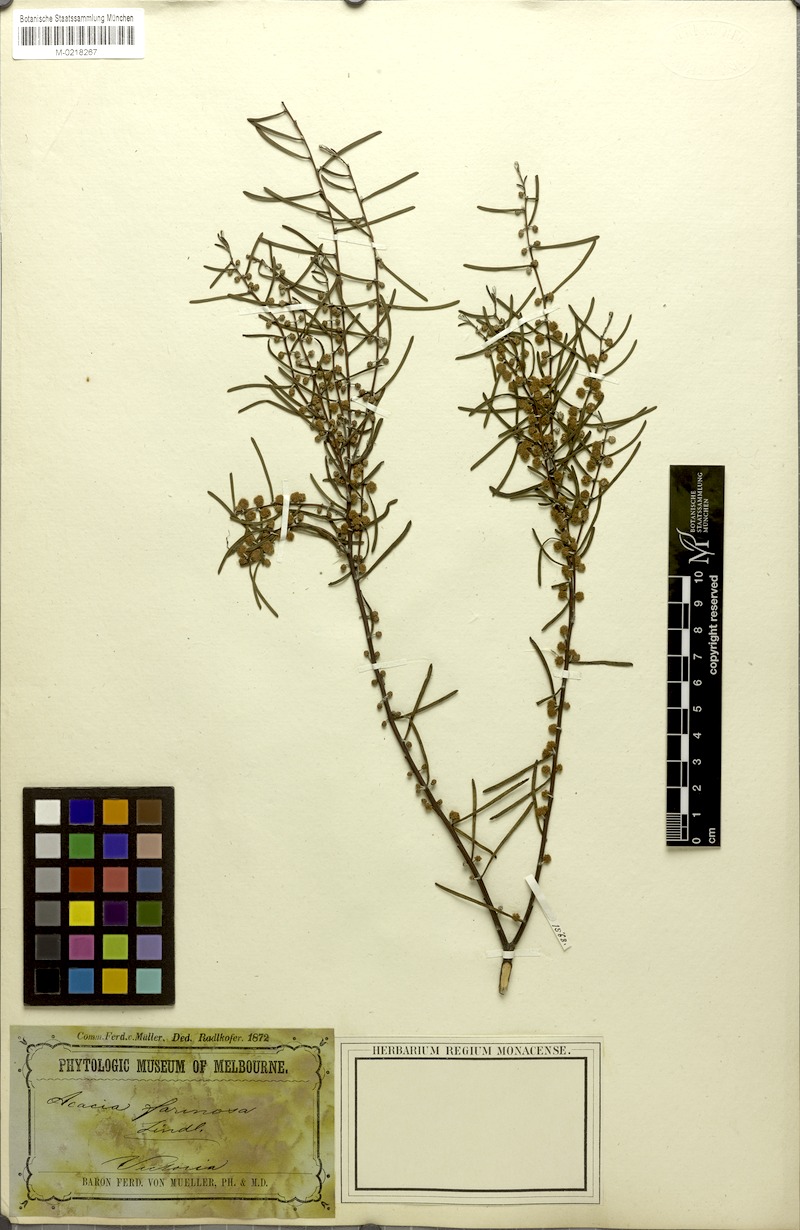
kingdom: Plantae
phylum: Tracheophyta
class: Magnoliopsida
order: Fabales
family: Fabaceae
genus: Acacia
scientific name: Acacia farinosa
